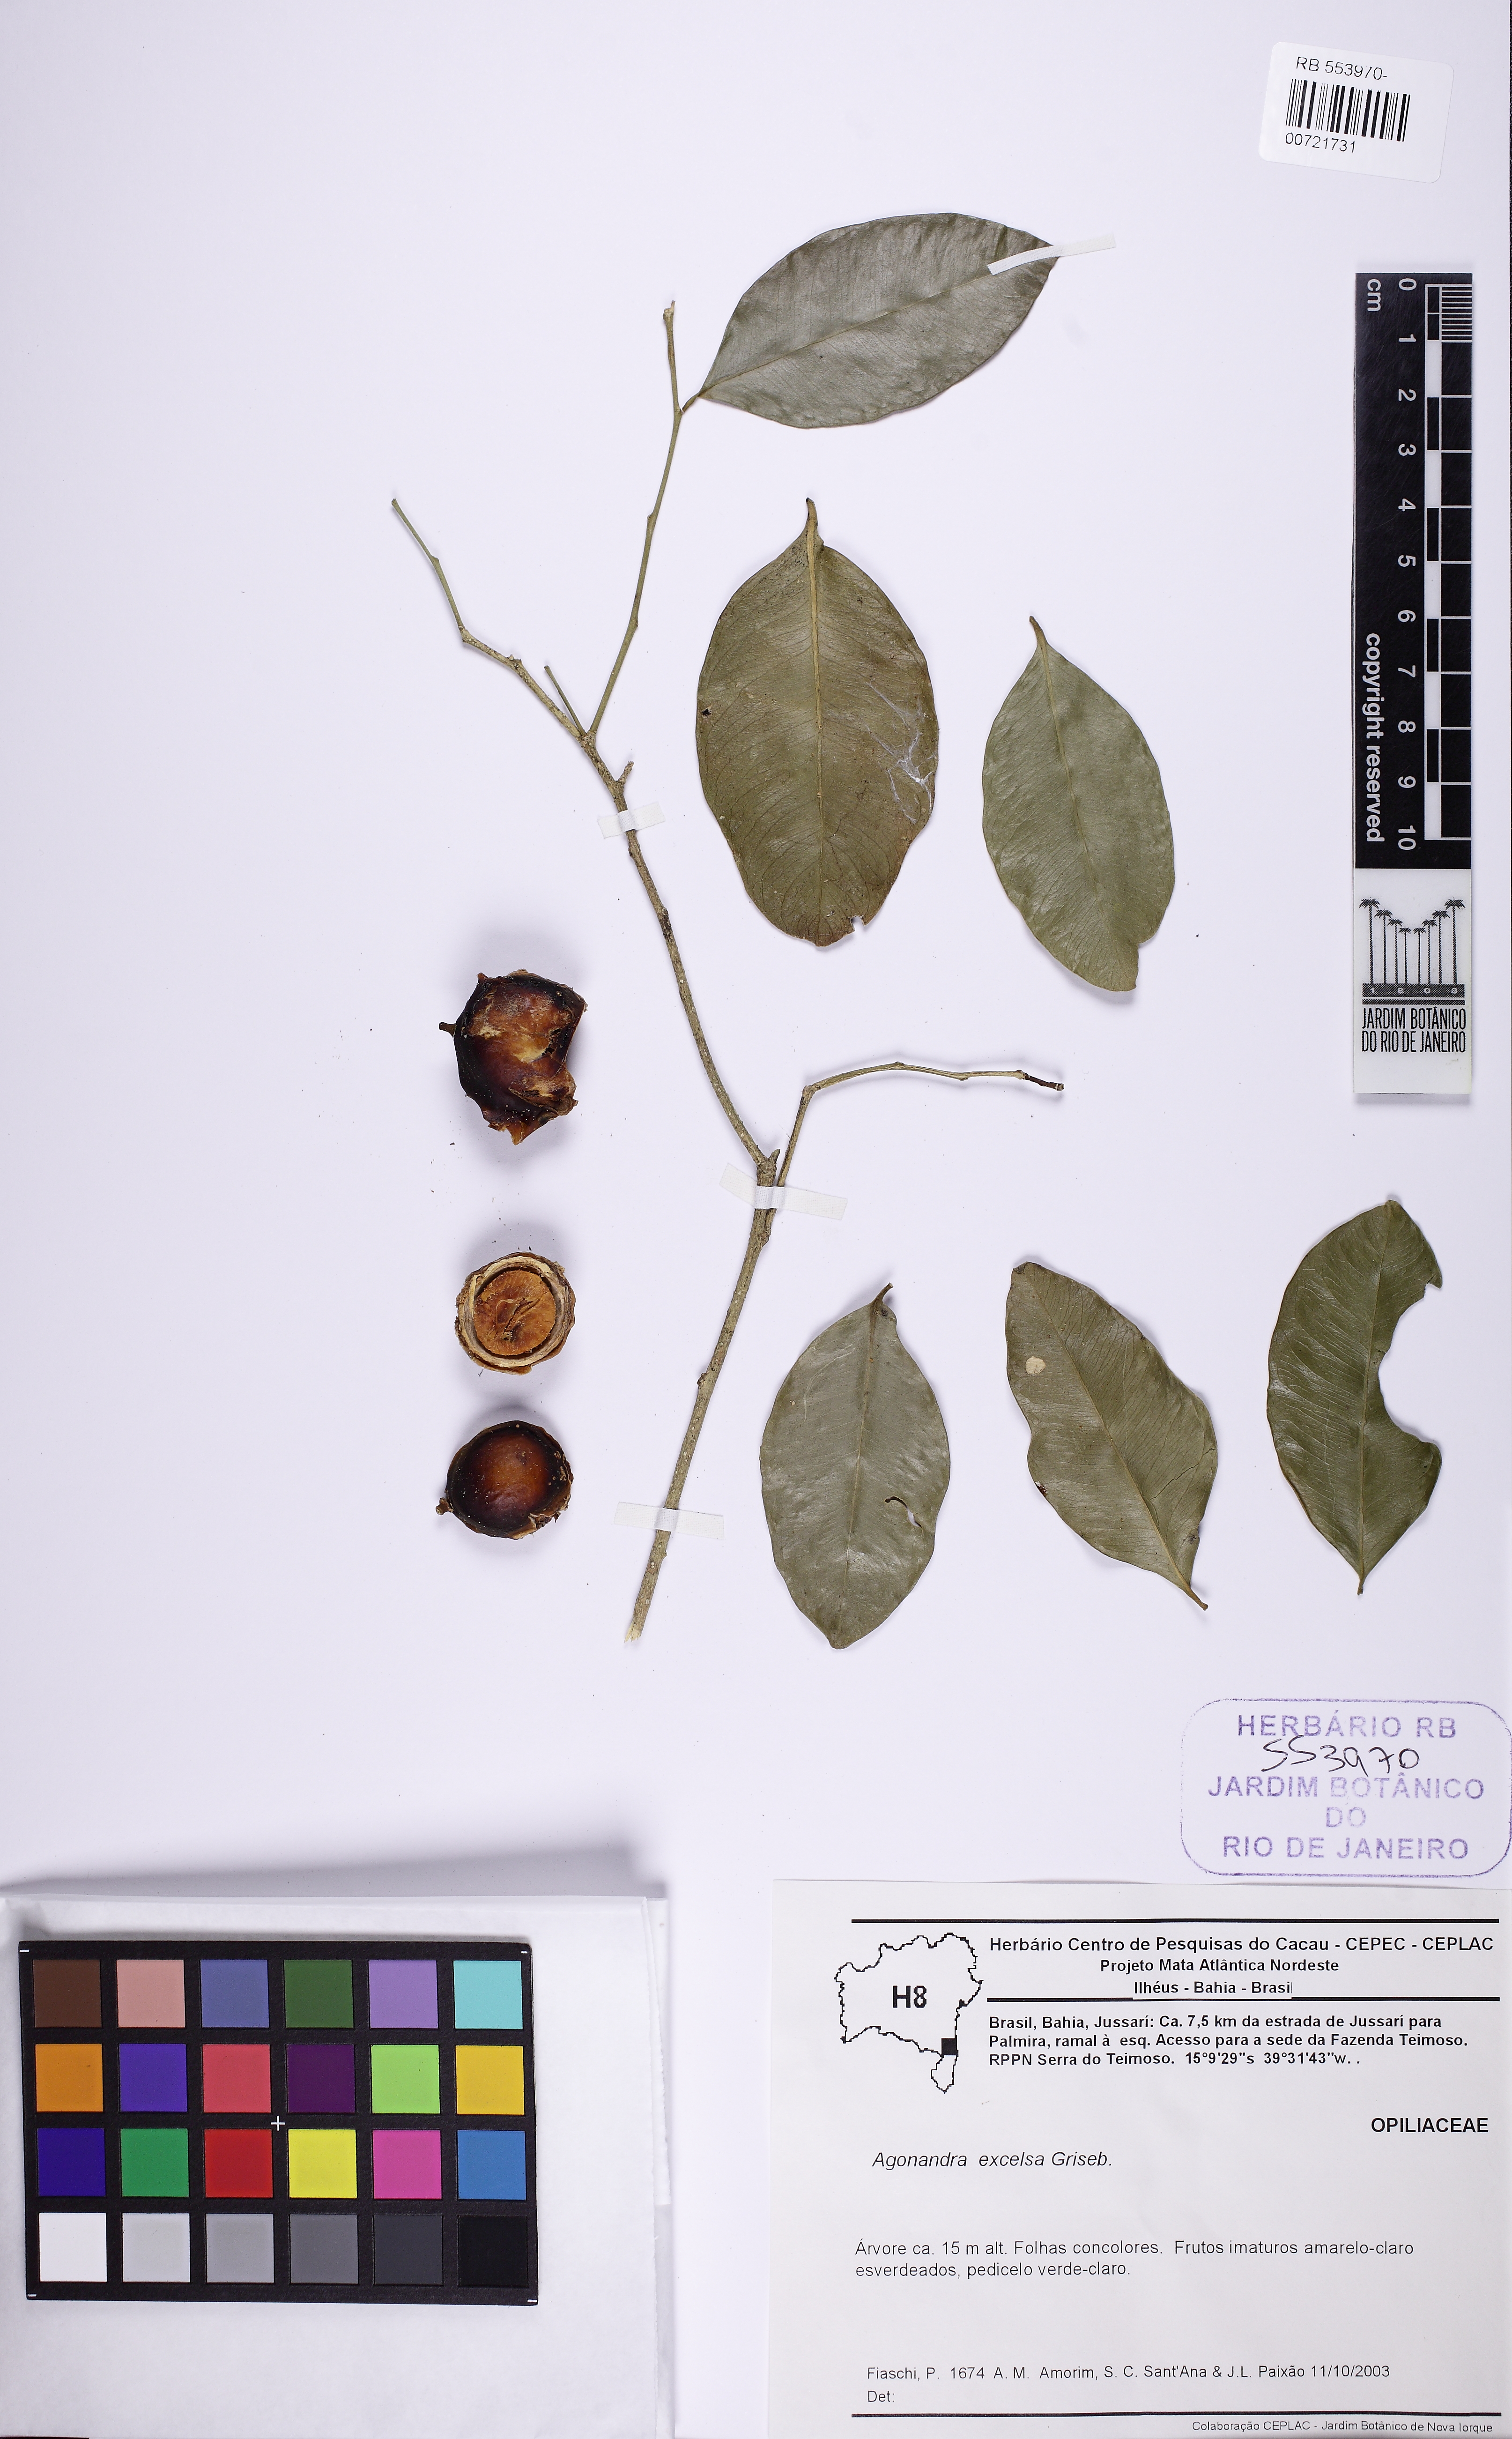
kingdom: Plantae
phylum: Tracheophyta
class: Magnoliopsida
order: Santalales
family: Opiliaceae
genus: Agonandra
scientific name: Agonandra excelsa
